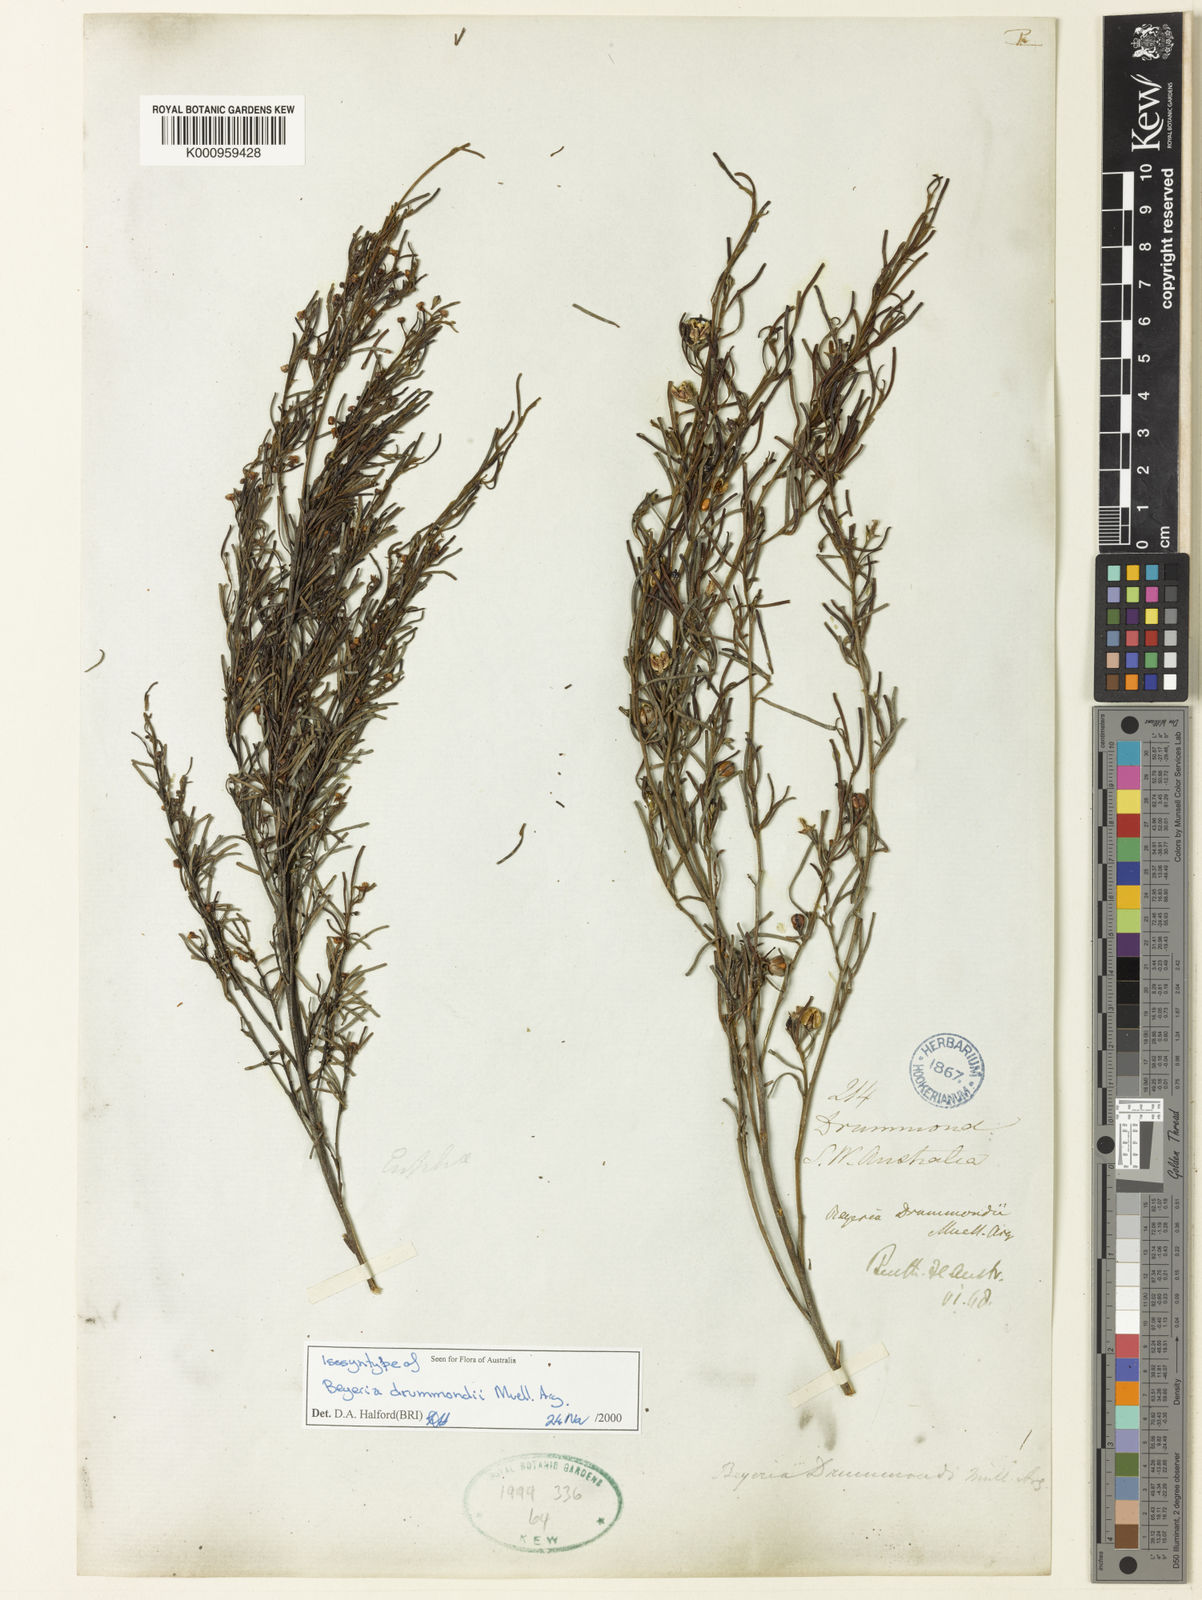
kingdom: Plantae
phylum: Tracheophyta
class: Magnoliopsida
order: Malpighiales
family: Euphorbiaceae
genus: Shonia
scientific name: Shonia tristigma
